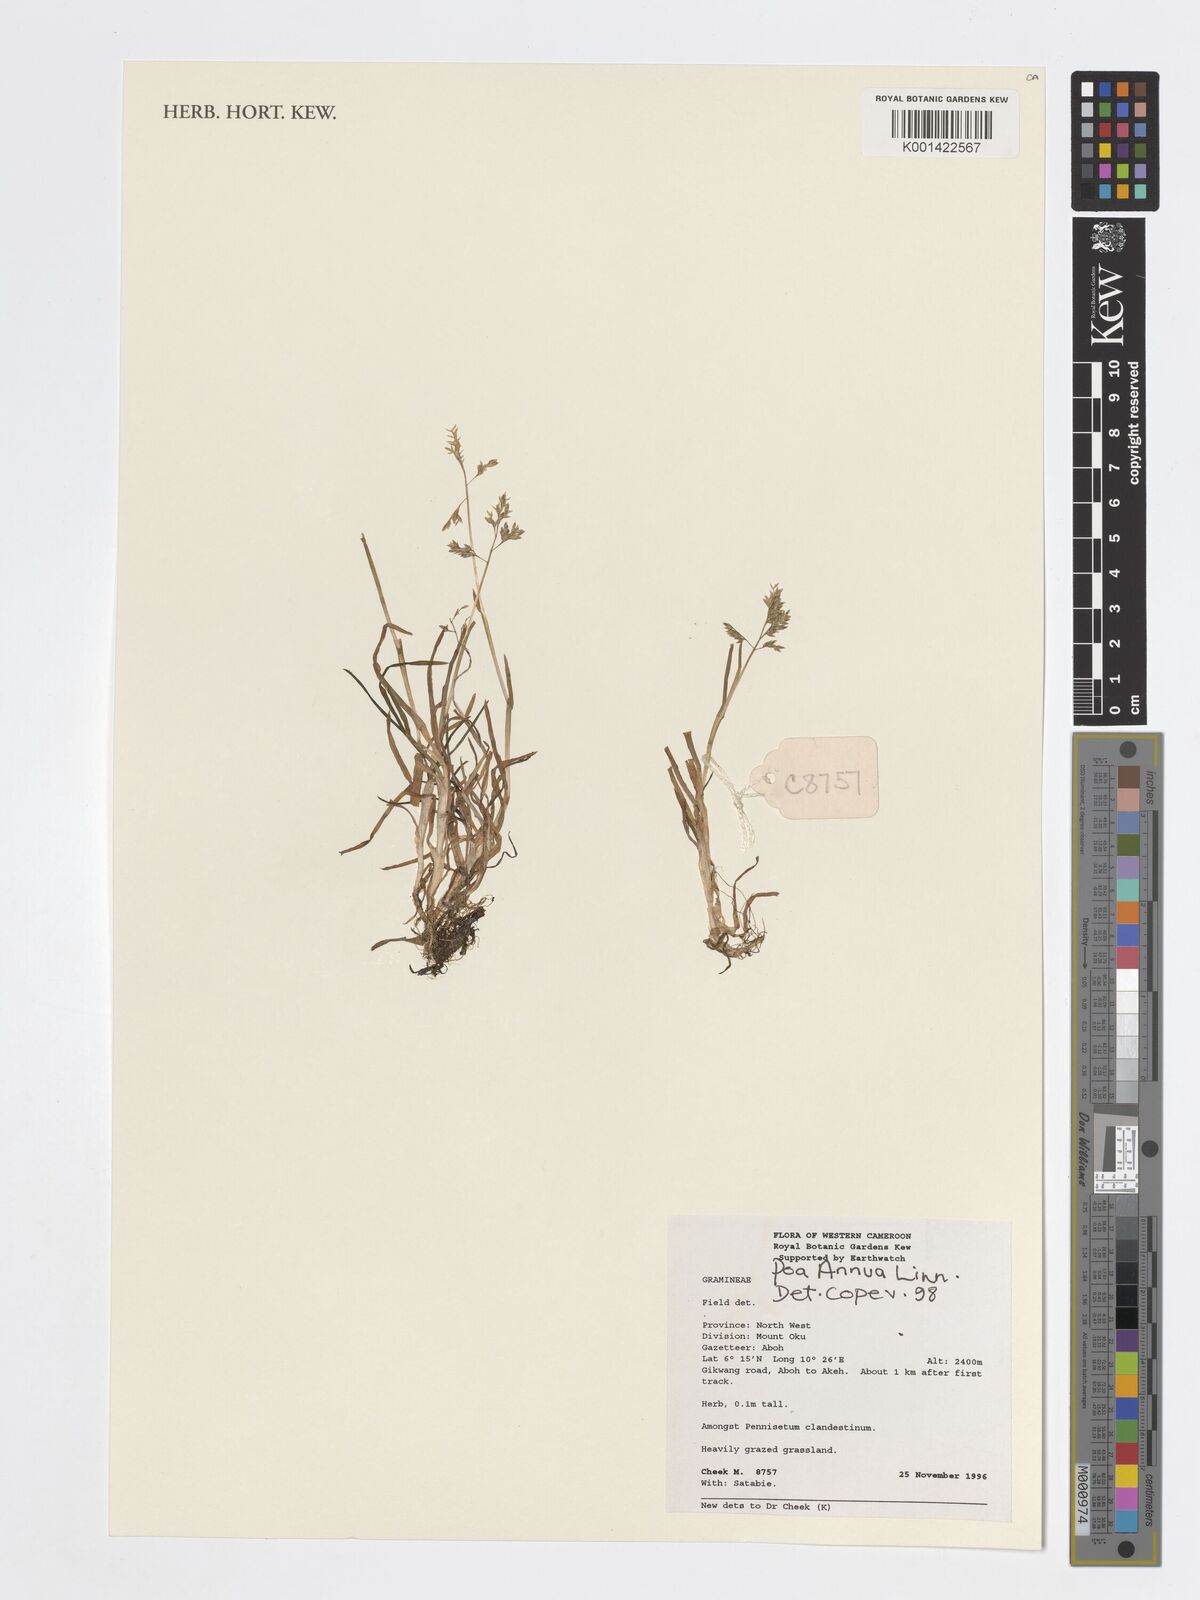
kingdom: Plantae
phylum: Tracheophyta
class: Liliopsida
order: Poales
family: Poaceae
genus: Poa
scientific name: Poa annua
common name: Annual bluegrass
